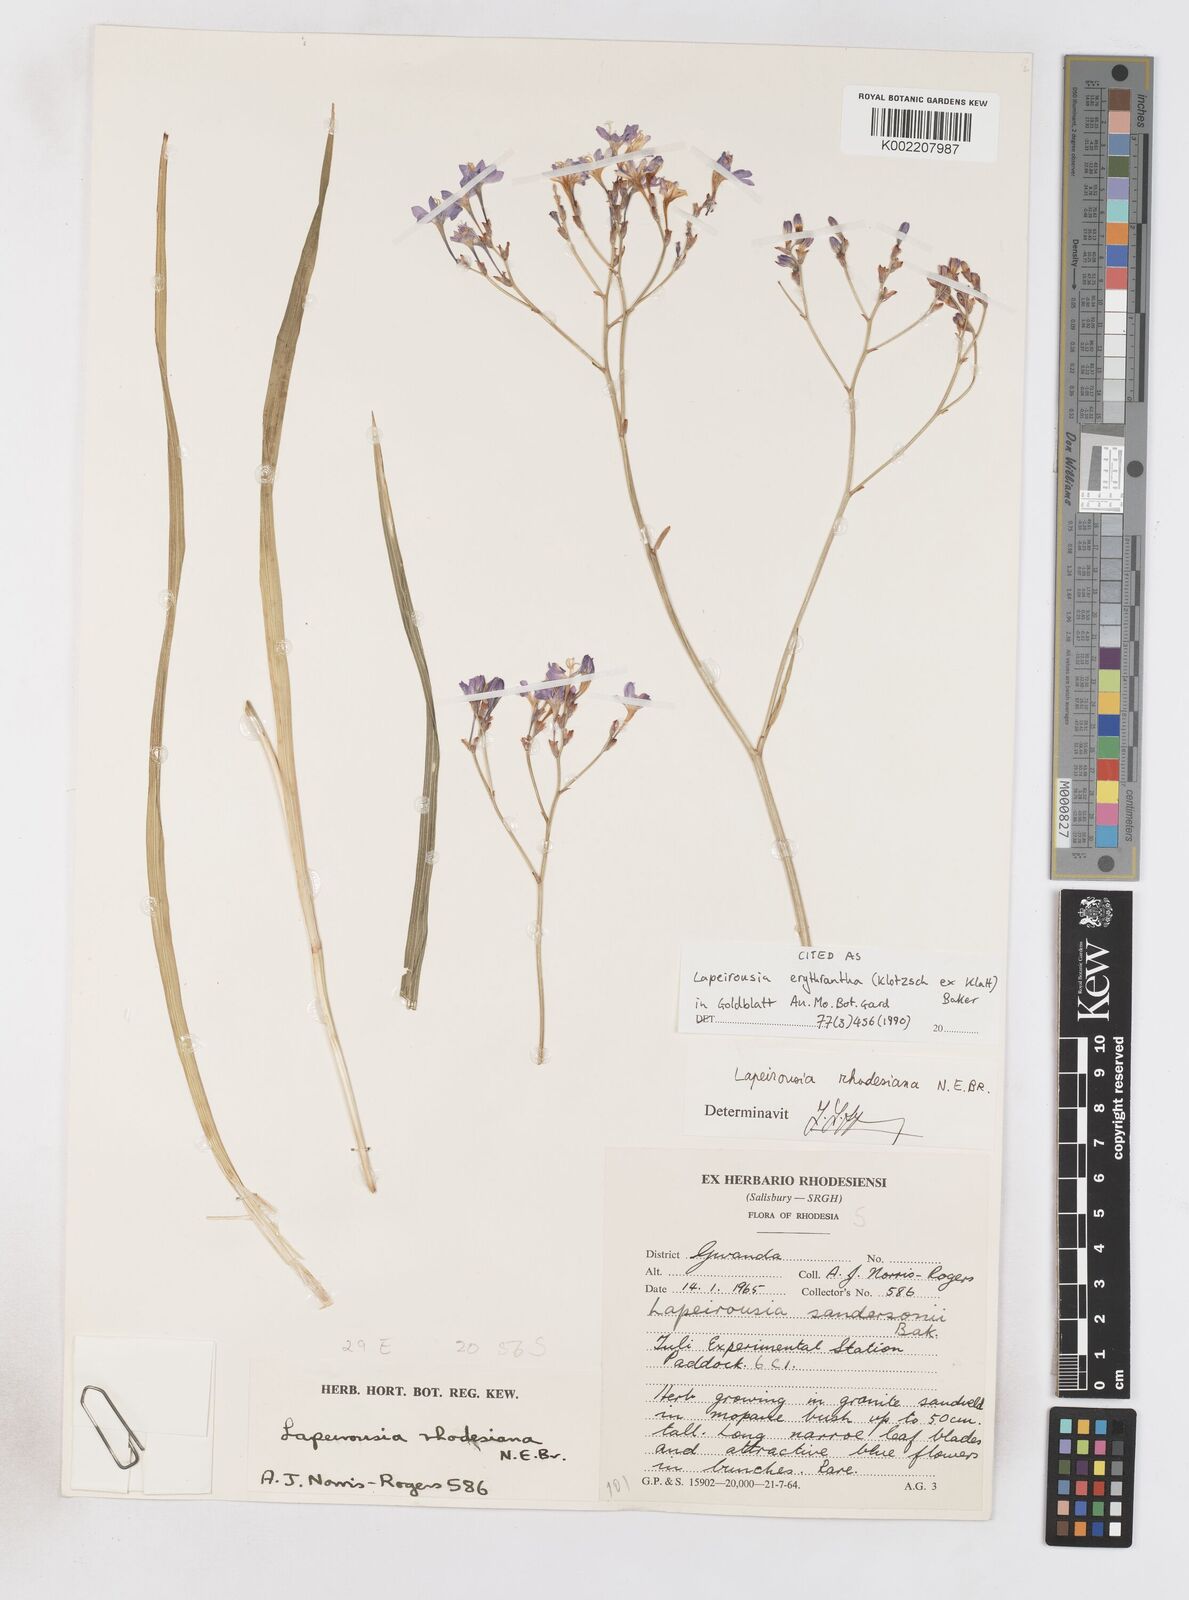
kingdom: Plantae
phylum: Tracheophyta
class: Liliopsida
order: Asparagales
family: Iridaceae
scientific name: Iridaceae
